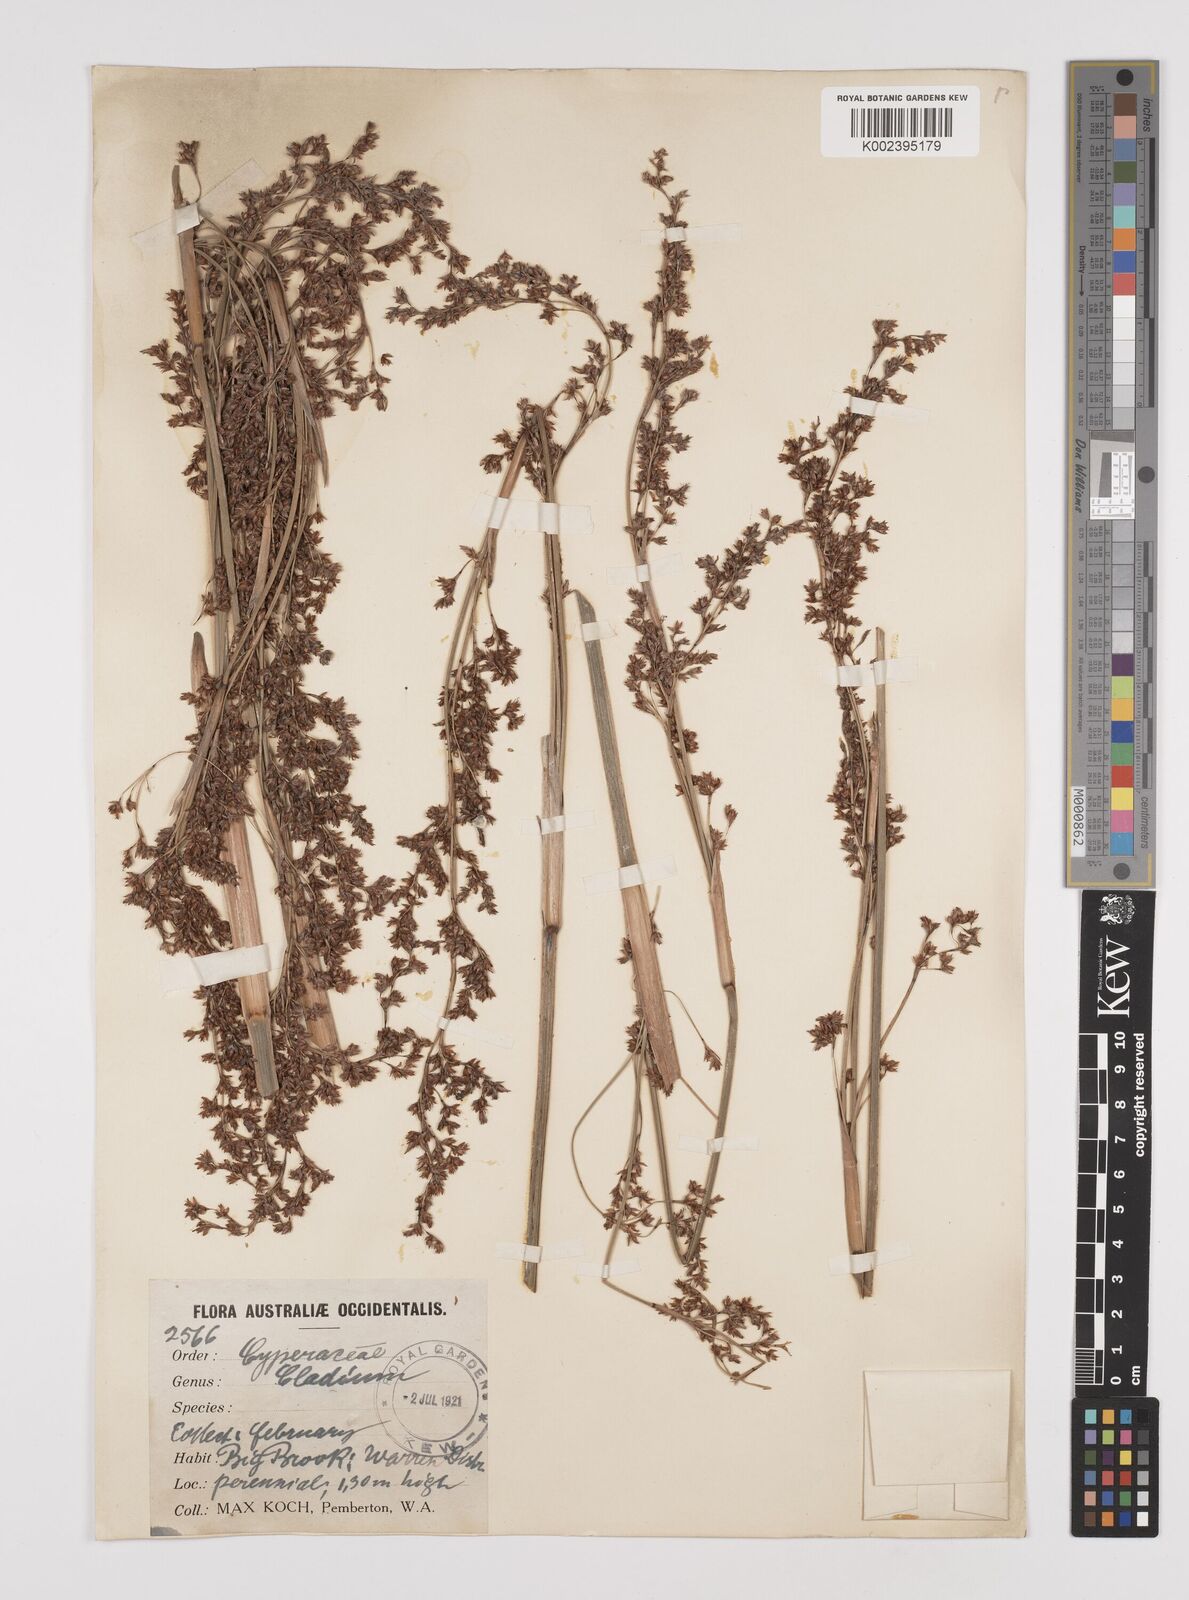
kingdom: Plantae
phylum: Tracheophyta
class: Liliopsida
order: Poales
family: Cyperaceae
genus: Machaerina
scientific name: Machaerina preissii
